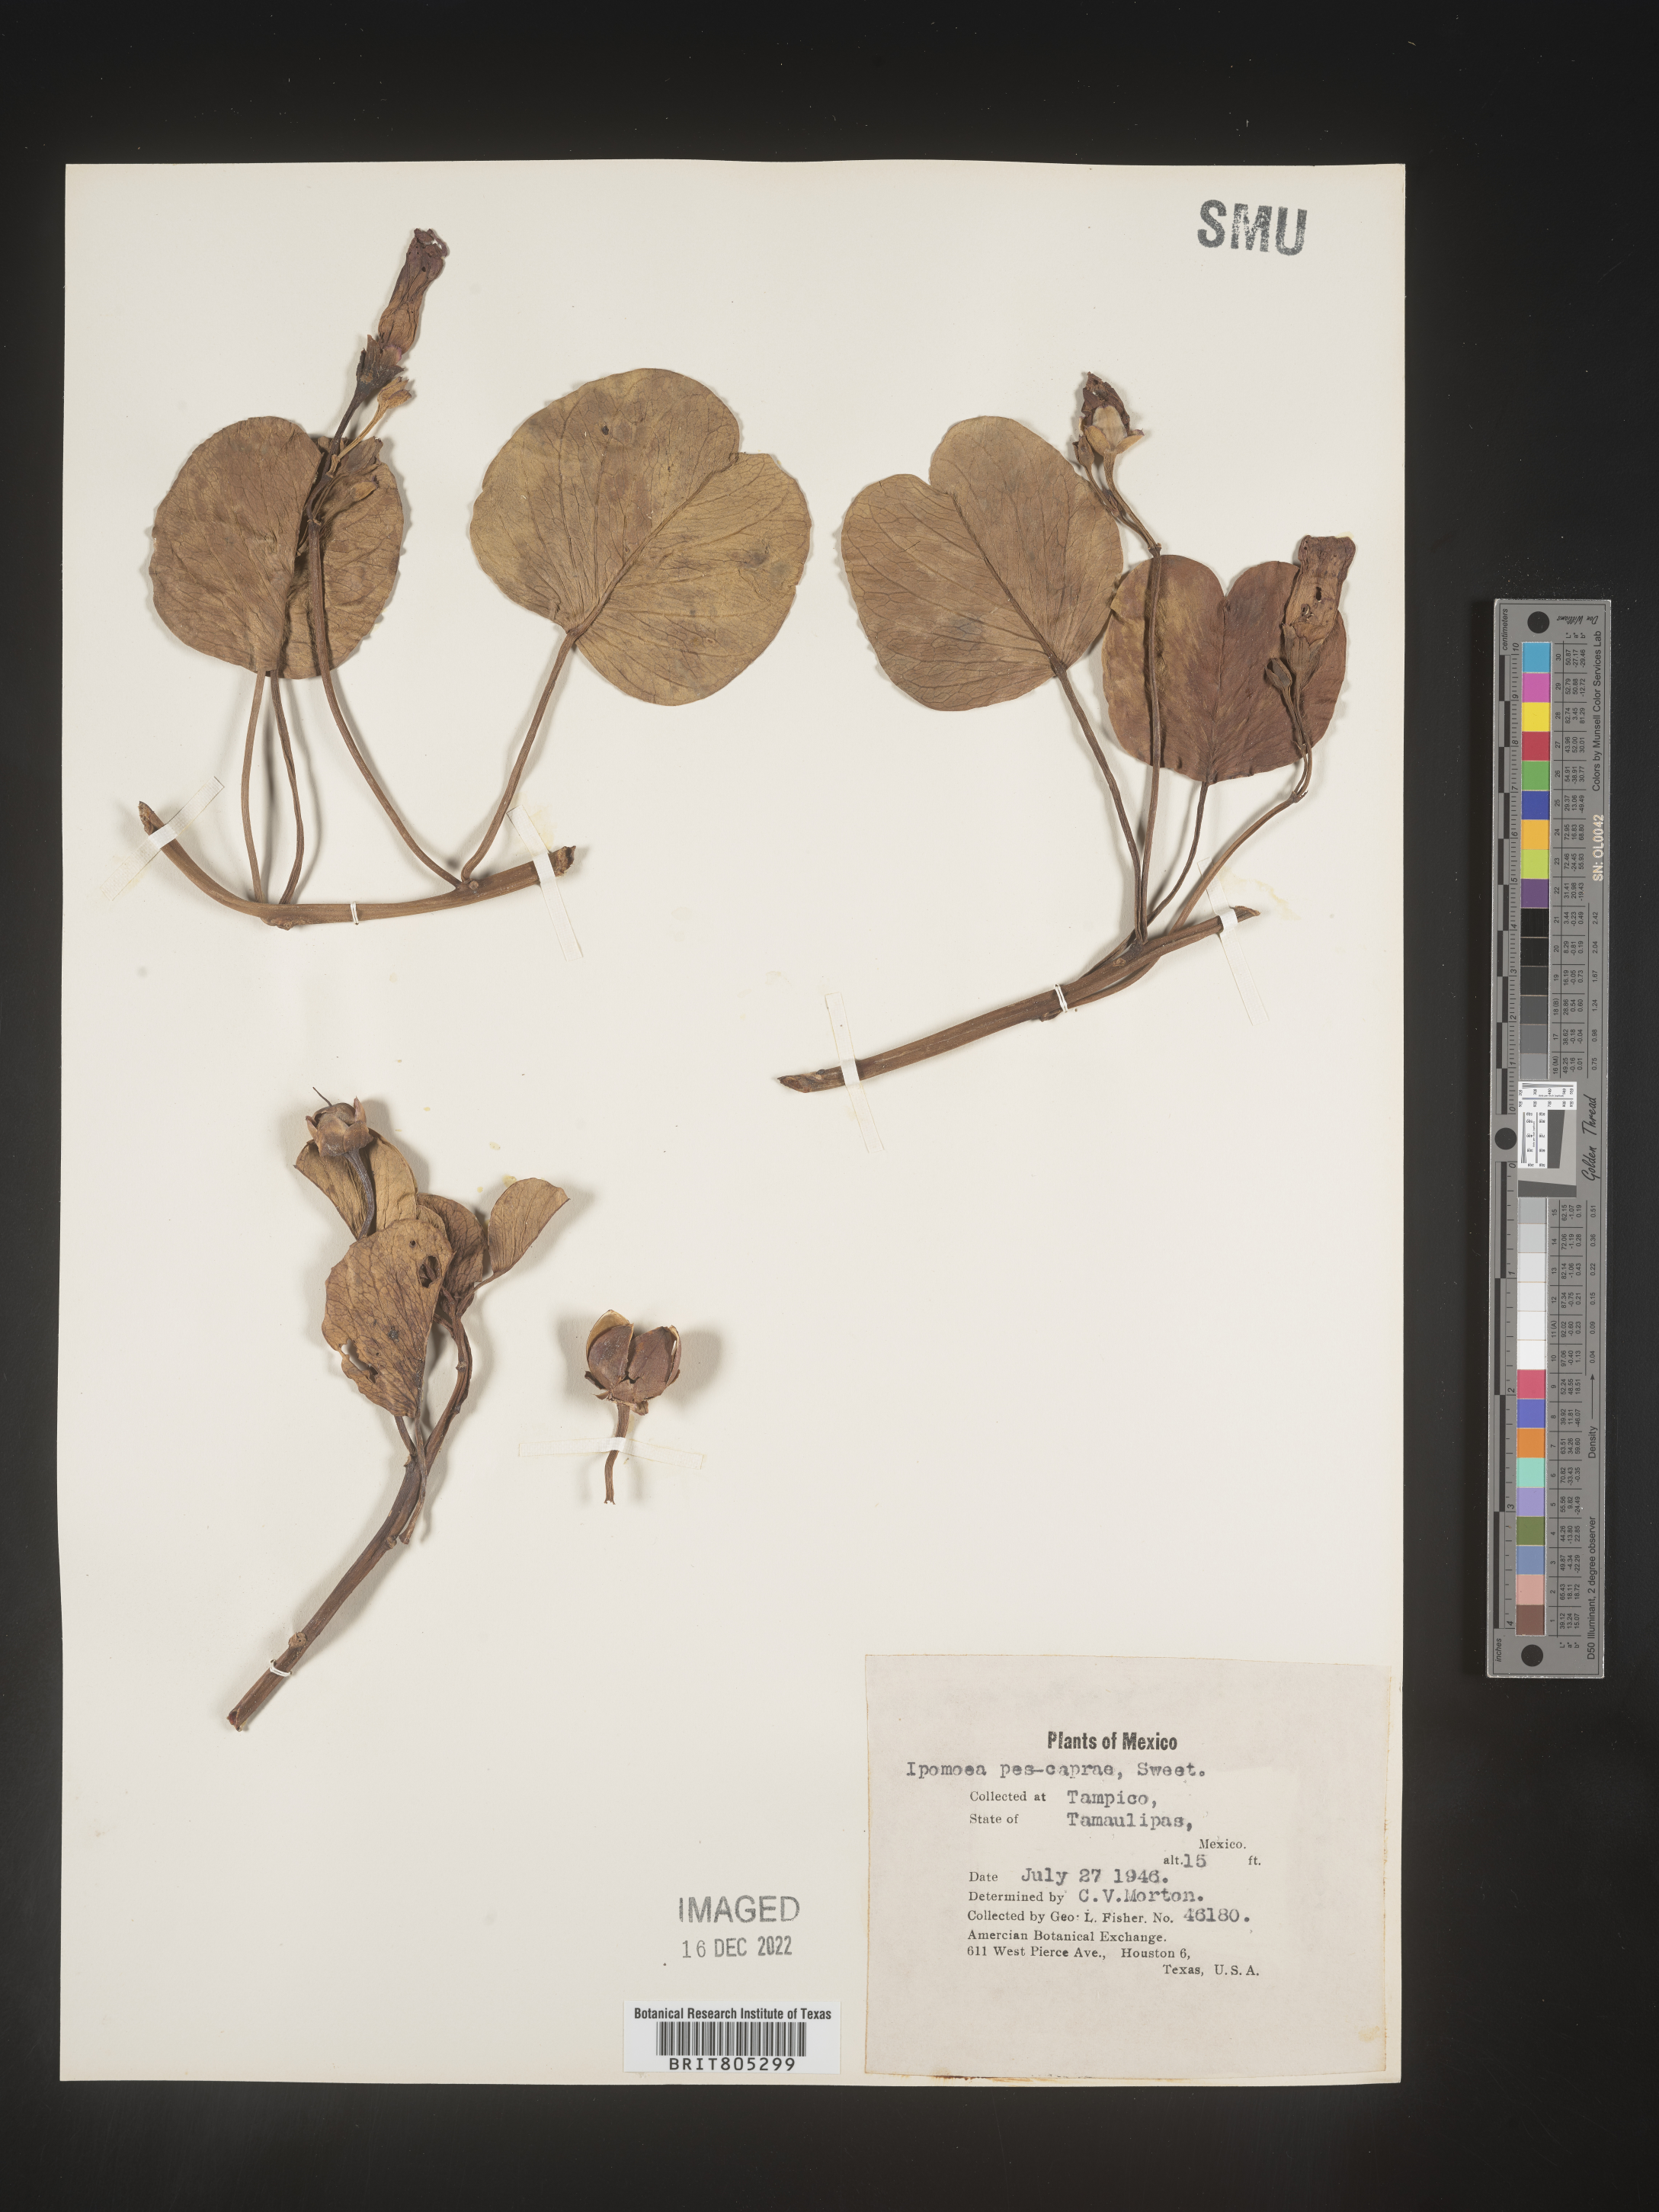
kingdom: Plantae
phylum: Tracheophyta
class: Magnoliopsida
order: Solanales
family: Convolvulaceae
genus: Ipomoea
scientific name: Ipomoea
